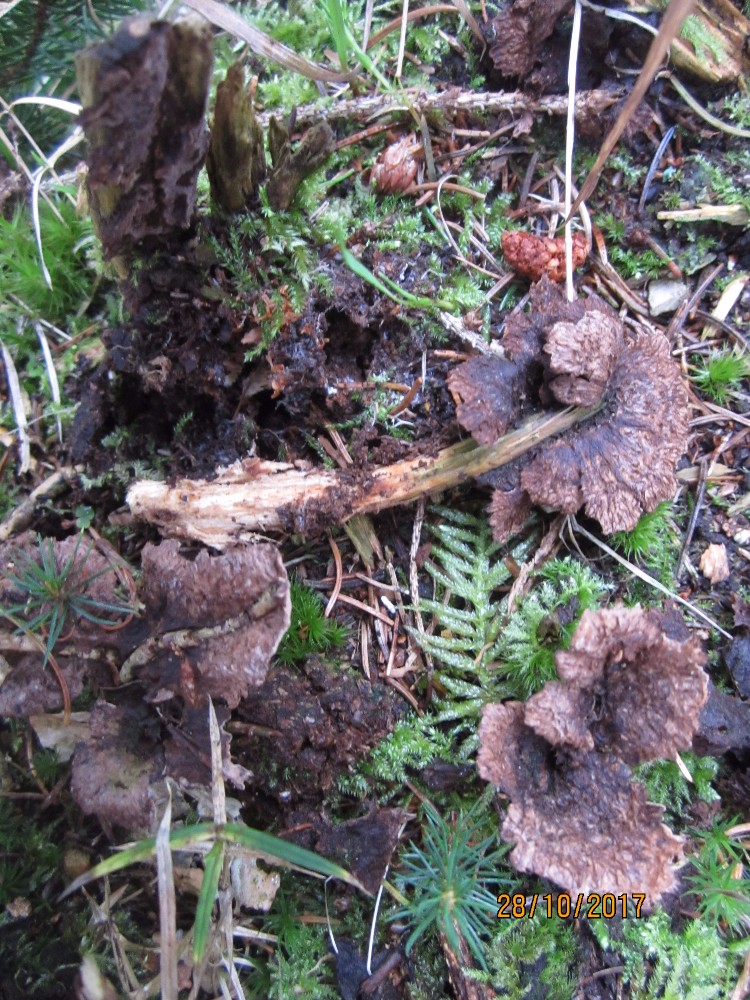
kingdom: Fungi
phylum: Basidiomycota
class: Agaricomycetes
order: Thelephorales
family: Thelephoraceae
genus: Thelephora
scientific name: Thelephora terrestris
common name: fliget frynsesvamp
